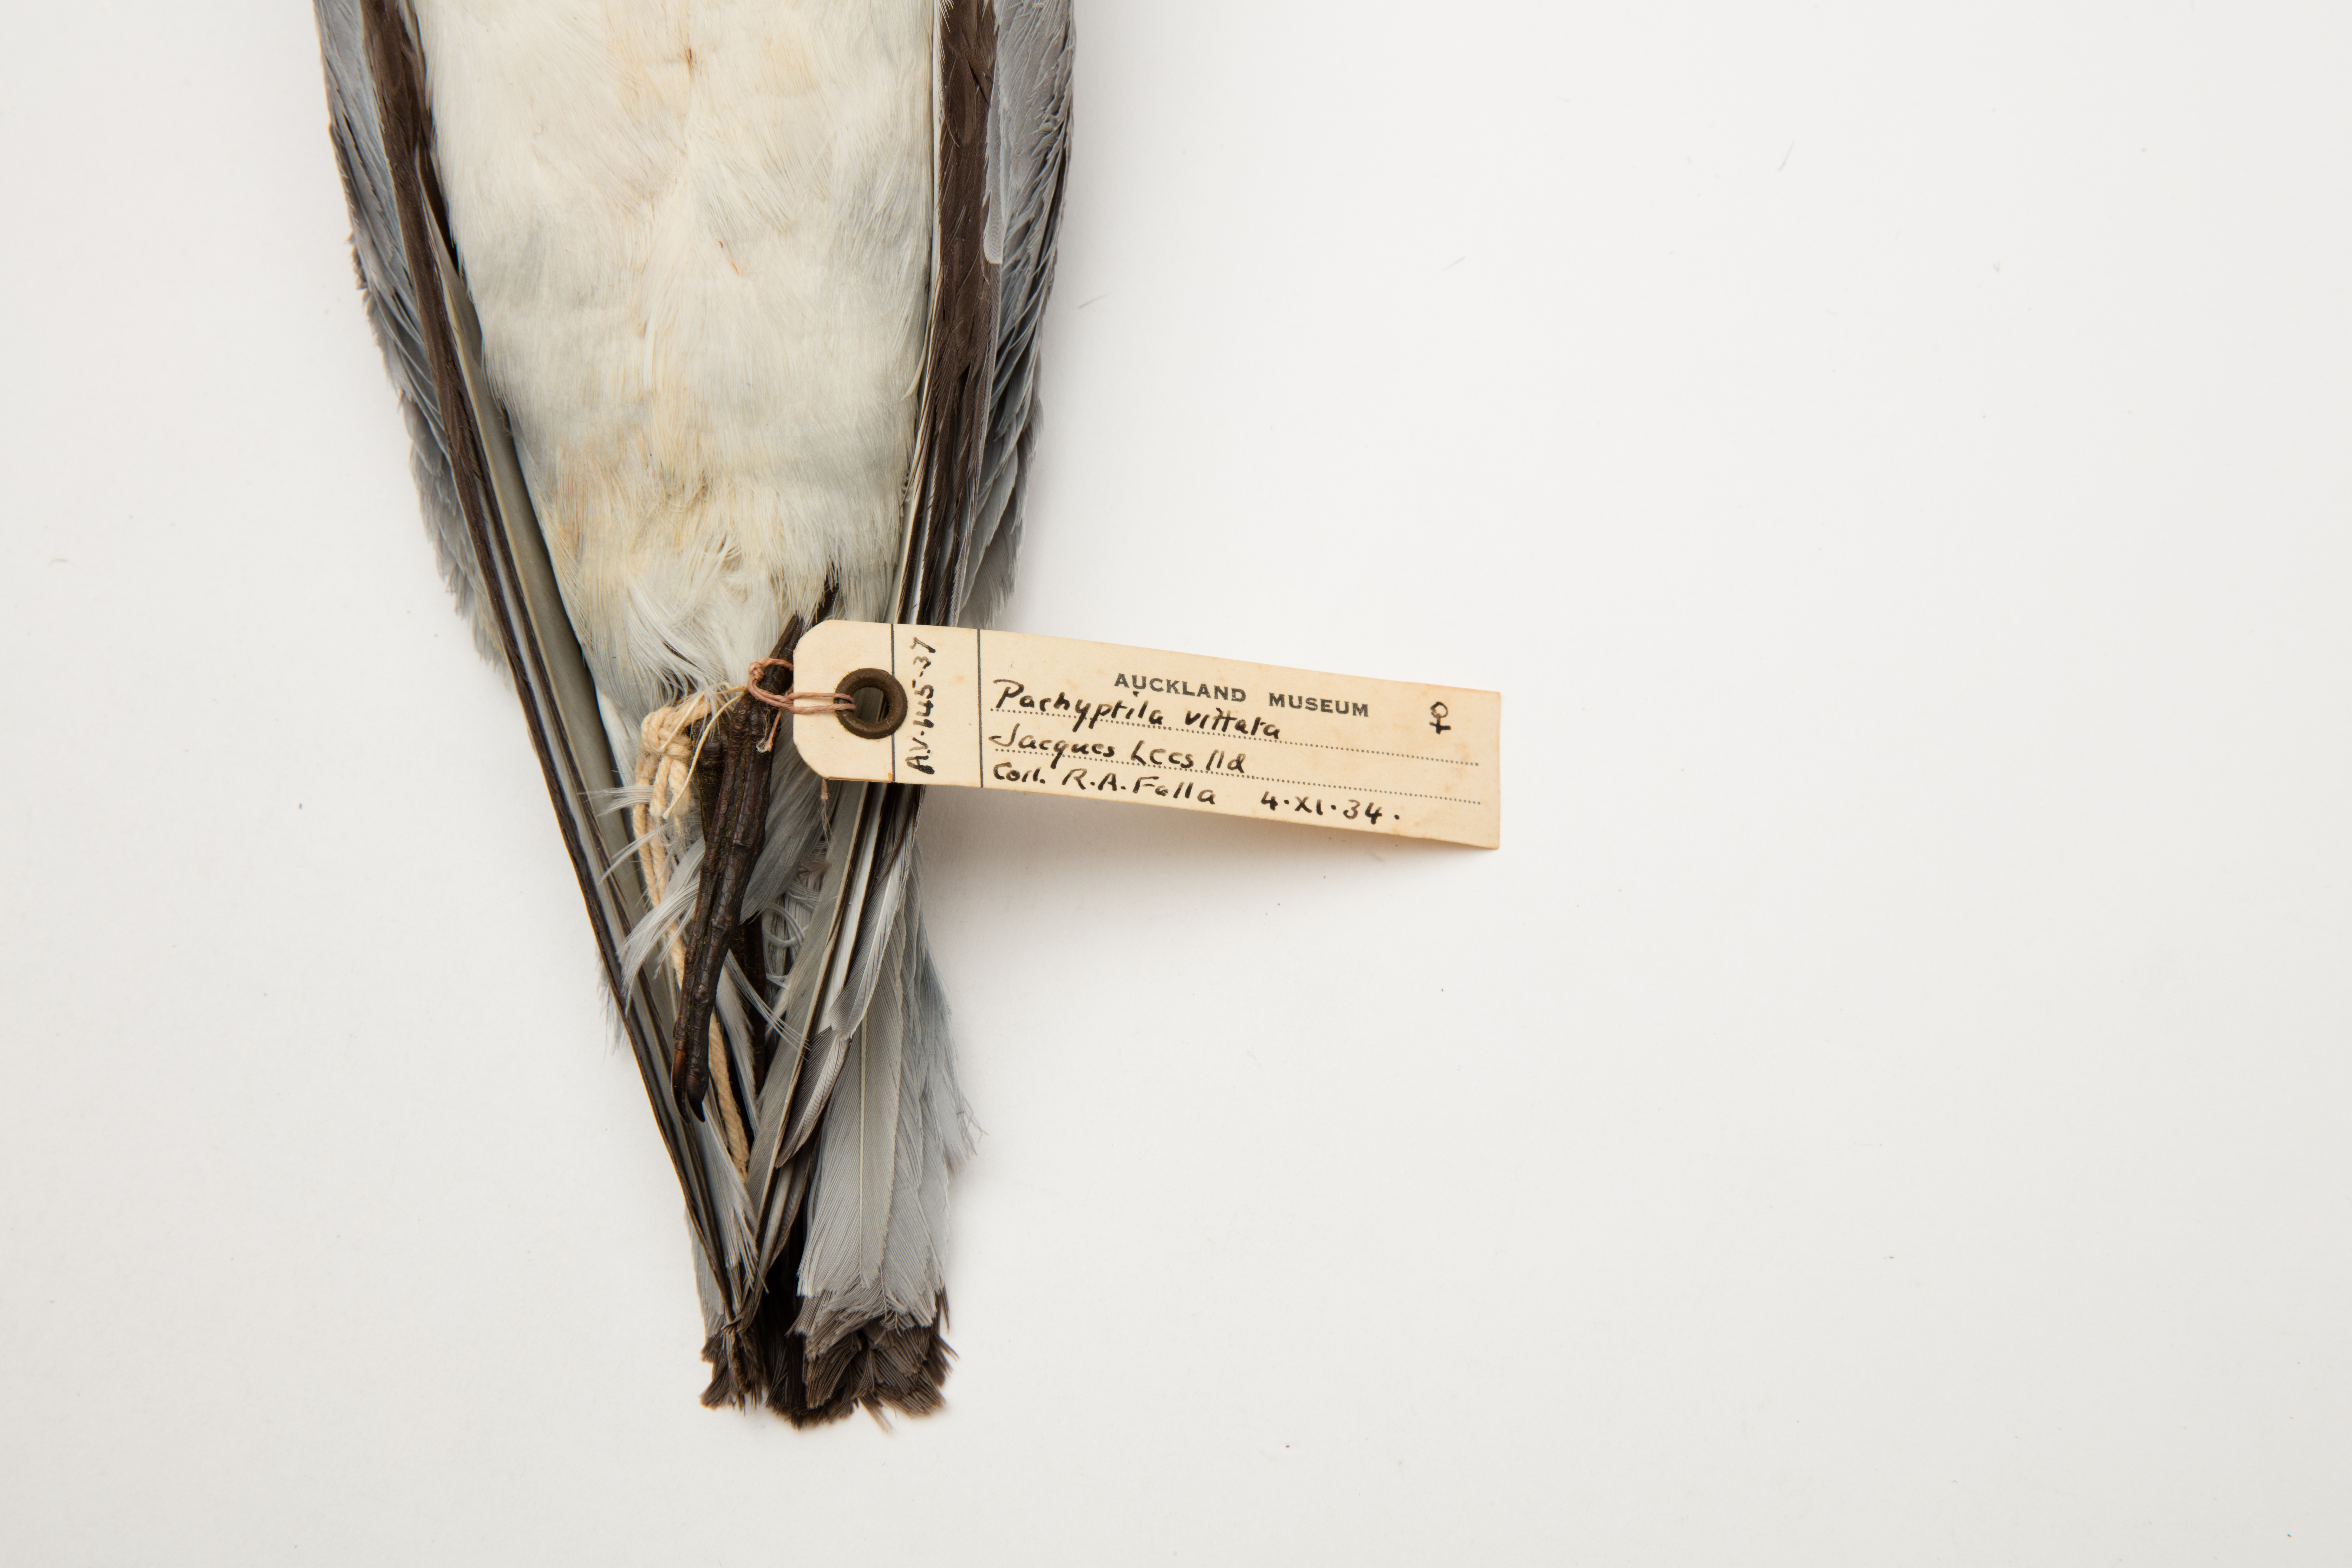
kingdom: Animalia
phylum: Chordata
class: Aves
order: Procellariiformes
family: Procellariidae
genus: Pachyptila
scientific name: Pachyptila vittata
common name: Broad-billed prion
